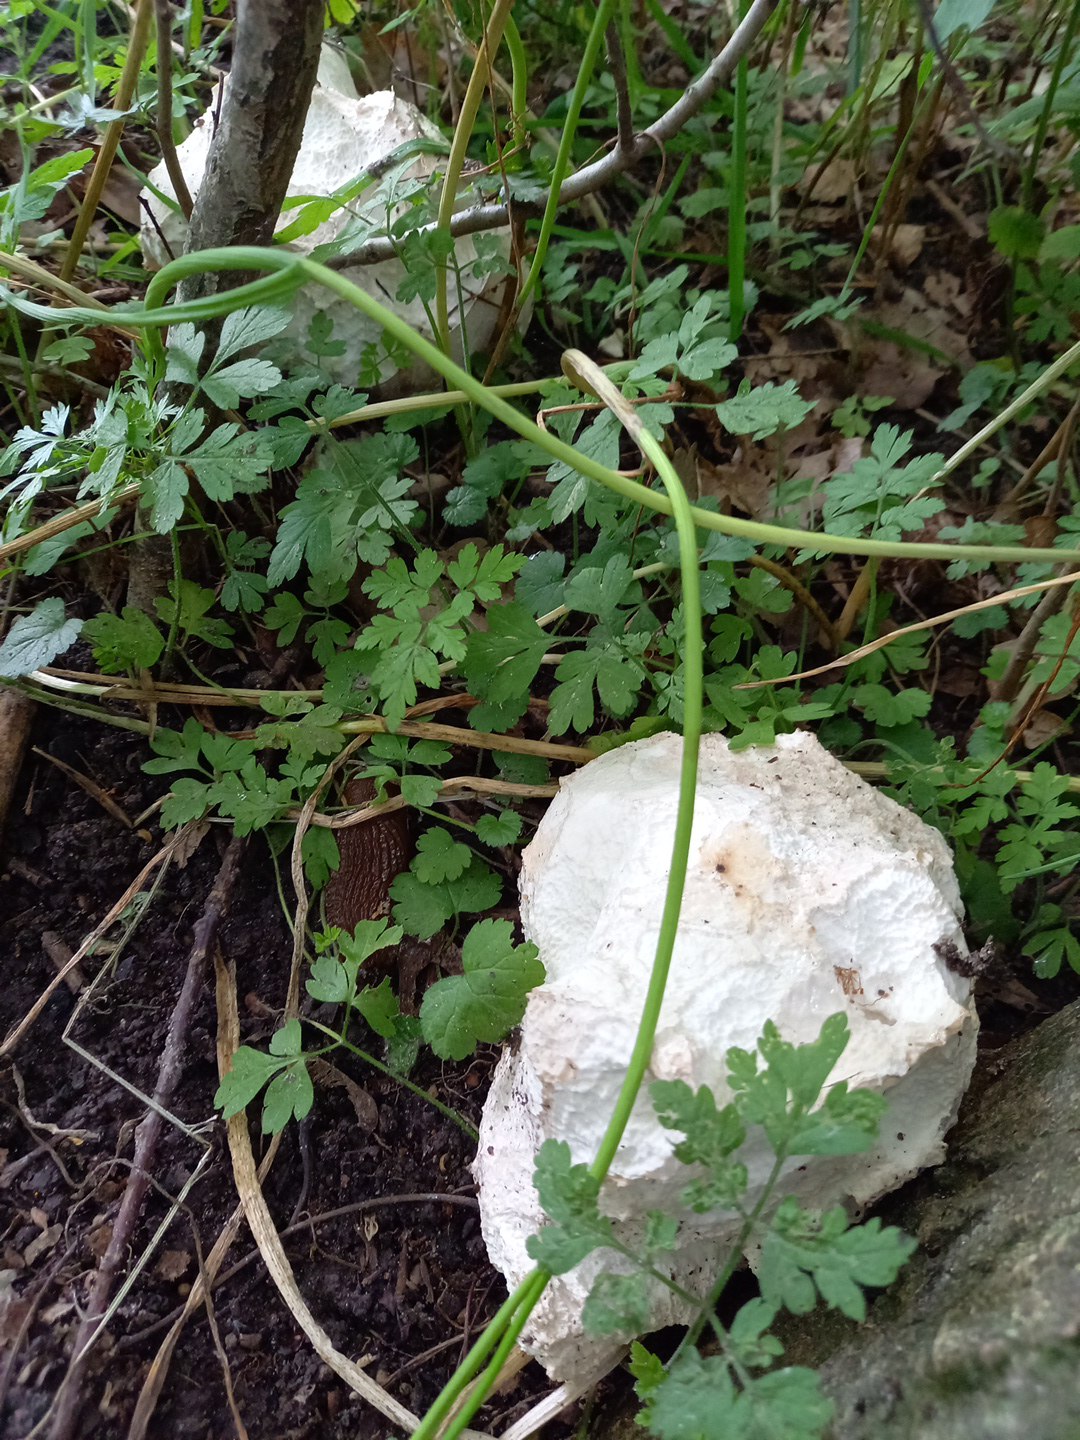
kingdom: Fungi
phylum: Basidiomycota
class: Agaricomycetes
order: Agaricales
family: Lycoperdaceae
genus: Calvatia
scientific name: Calvatia gigantea
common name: kæmpestøvbold
